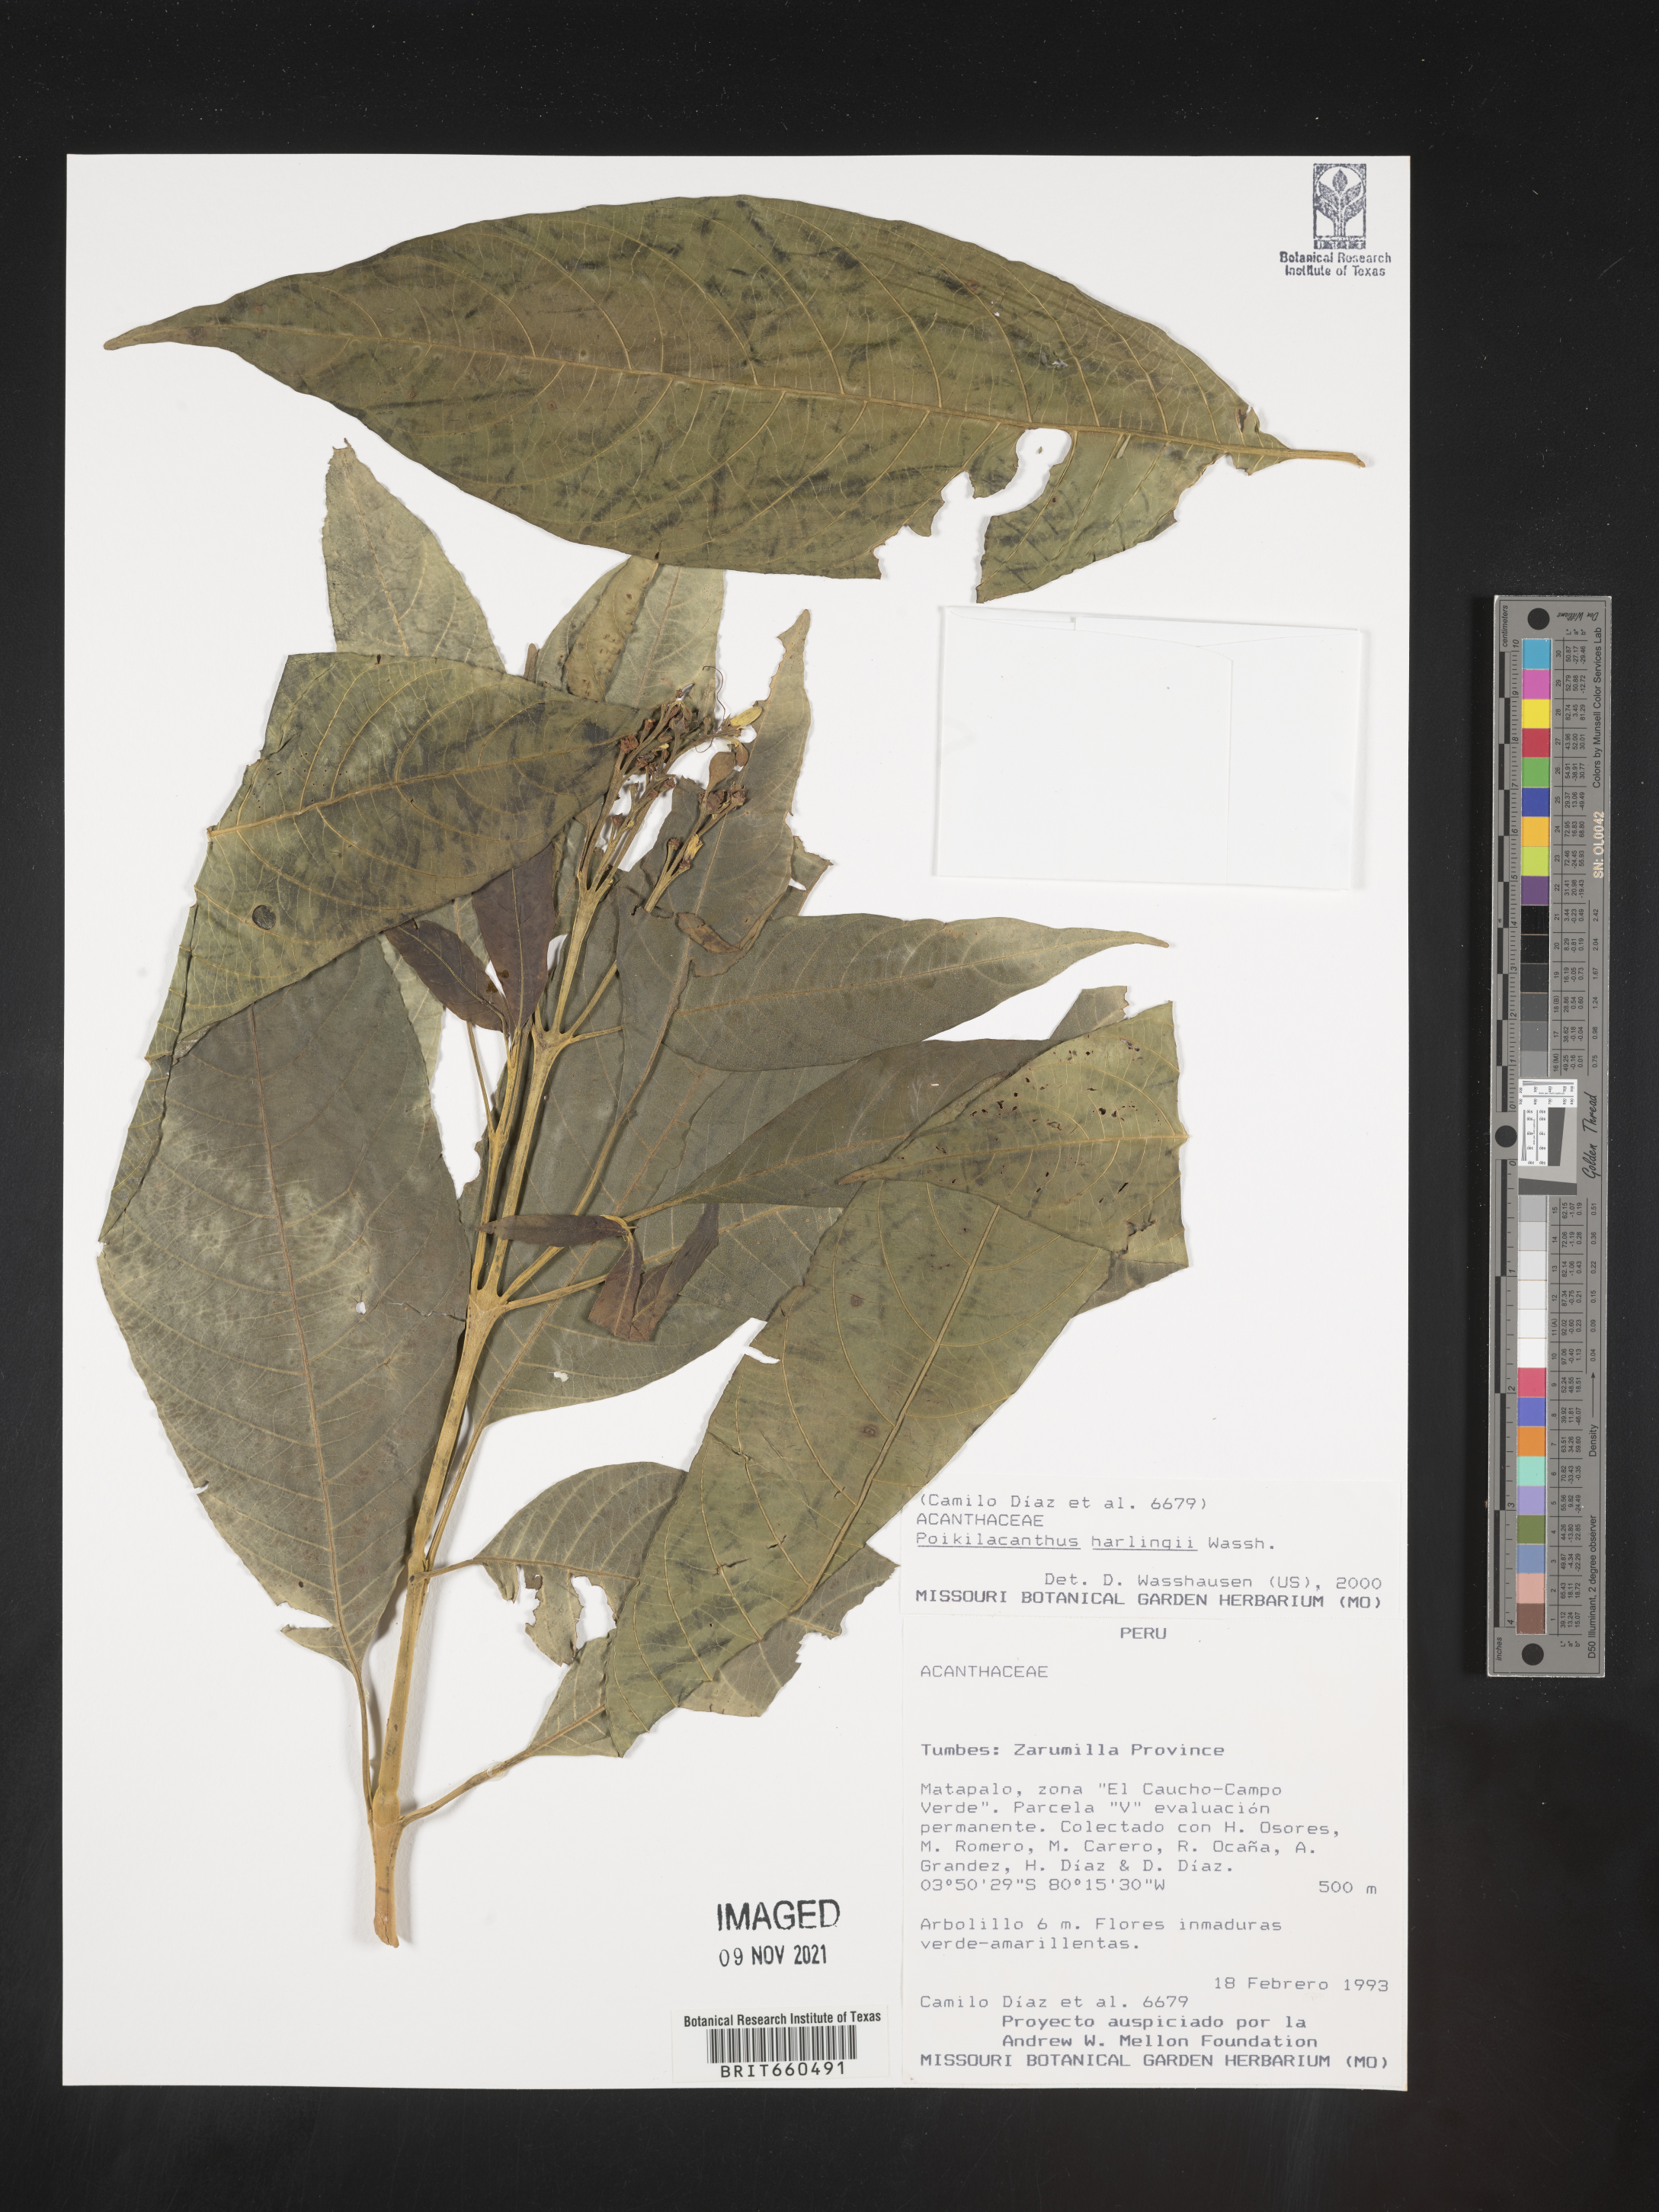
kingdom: Plantae
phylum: Tracheophyta
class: Magnoliopsida
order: Lamiales
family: Acanthaceae
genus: Poikilacanthus
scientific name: Poikilacanthus
